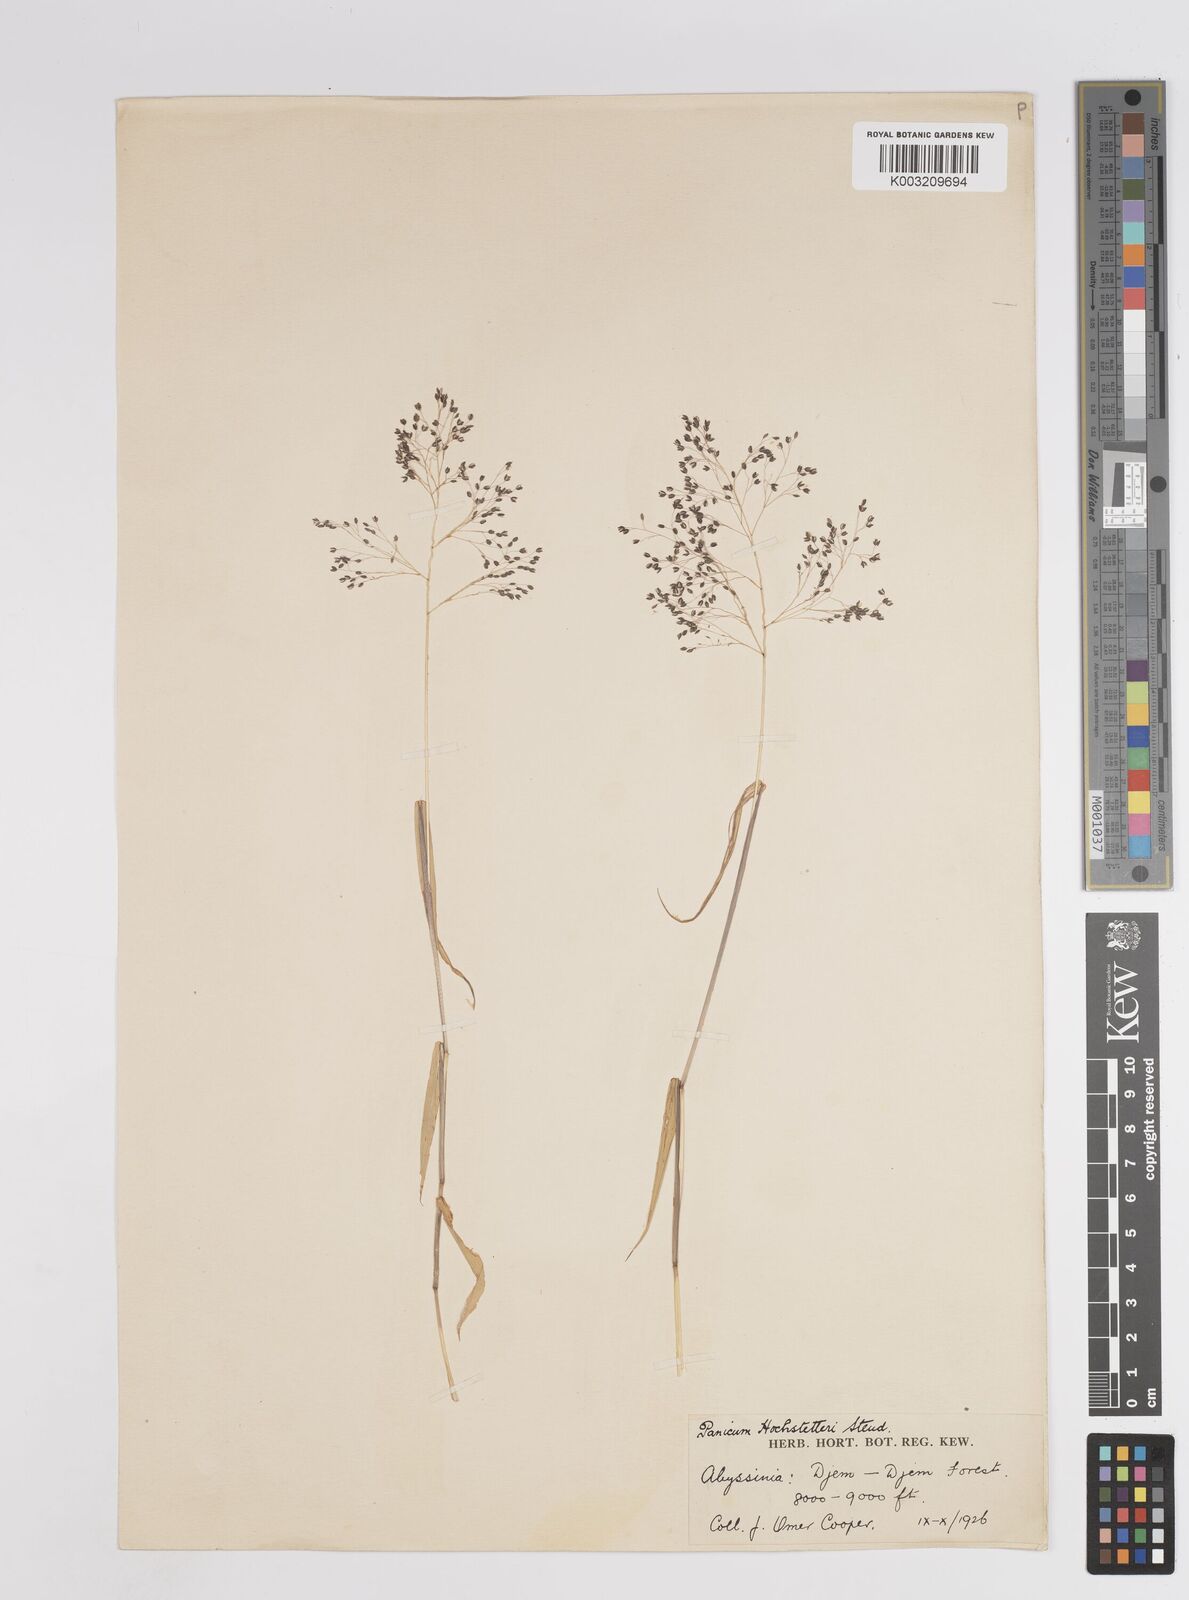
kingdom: Plantae
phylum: Tracheophyta
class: Liliopsida
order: Poales
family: Poaceae
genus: Panicum
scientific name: Panicum hochstetteri
